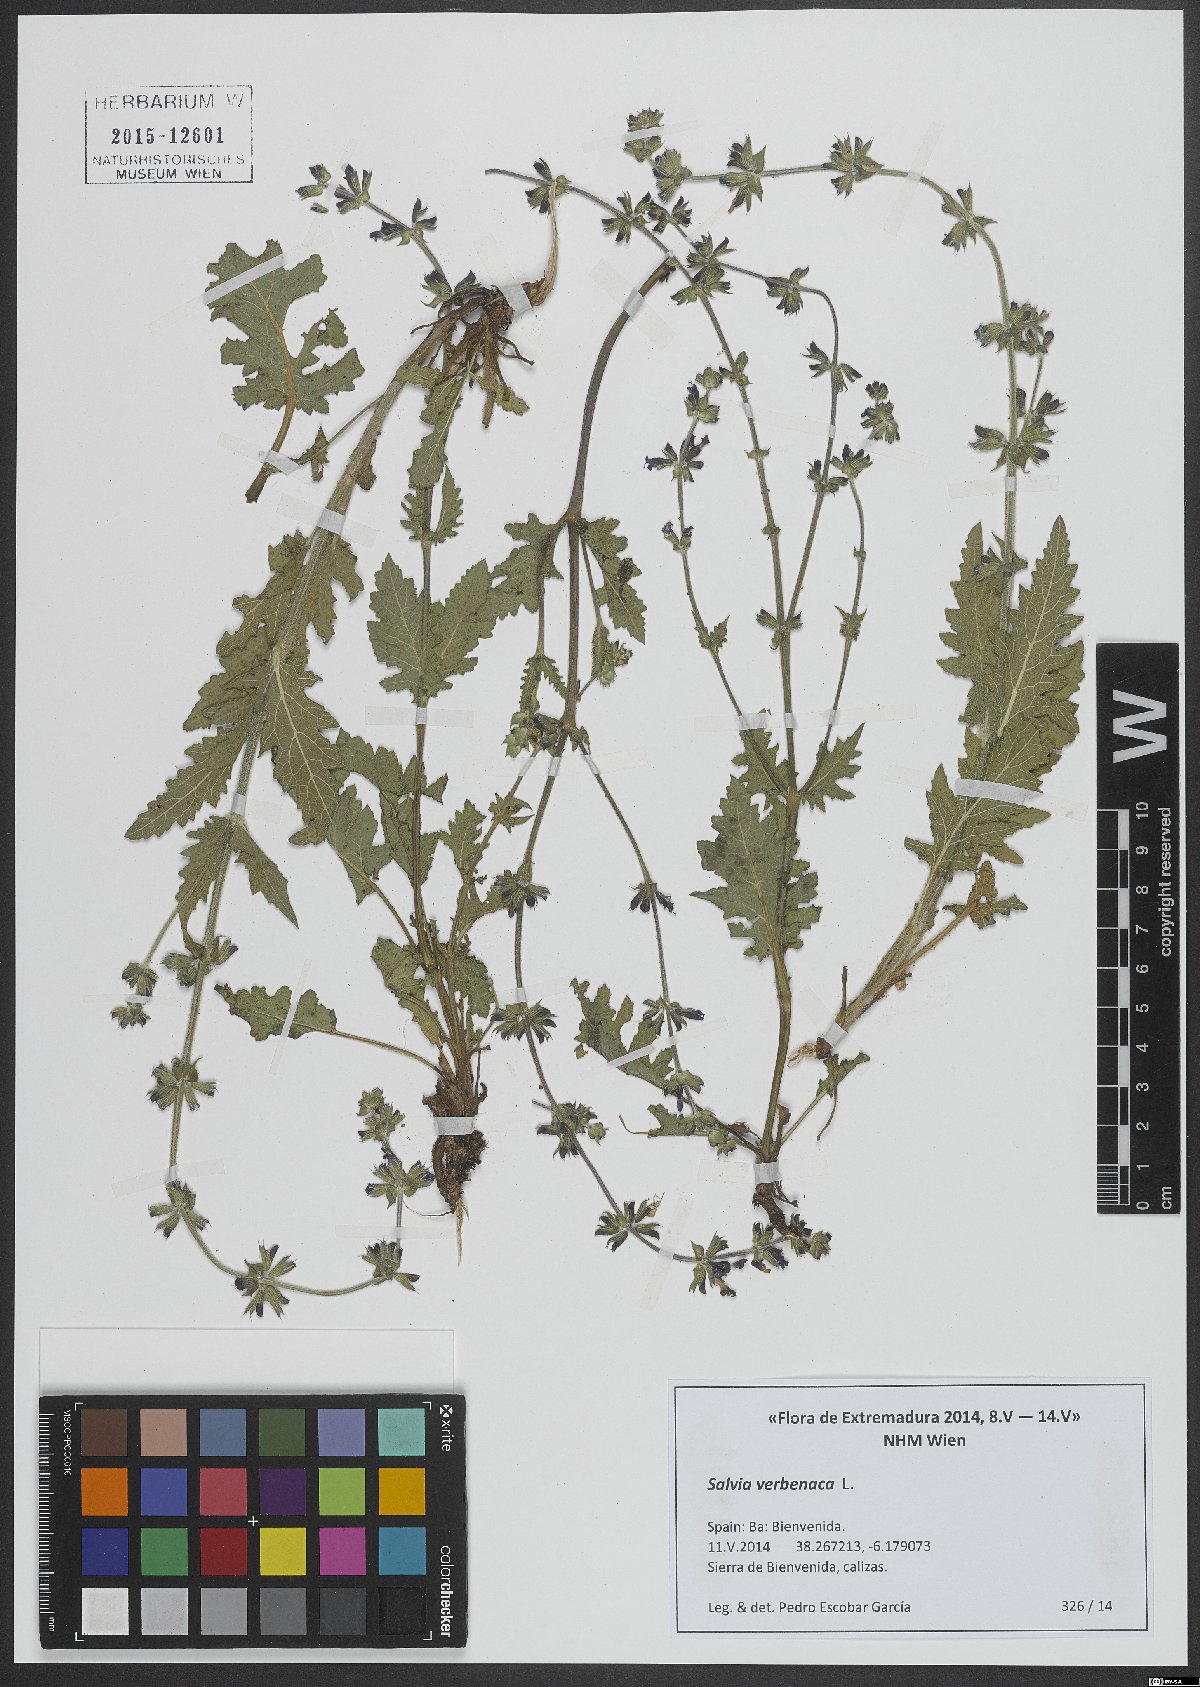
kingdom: Plantae
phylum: Tracheophyta
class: Magnoliopsida
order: Lamiales
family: Lamiaceae
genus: Salvia
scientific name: Salvia verbenaca
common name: Wild clary
